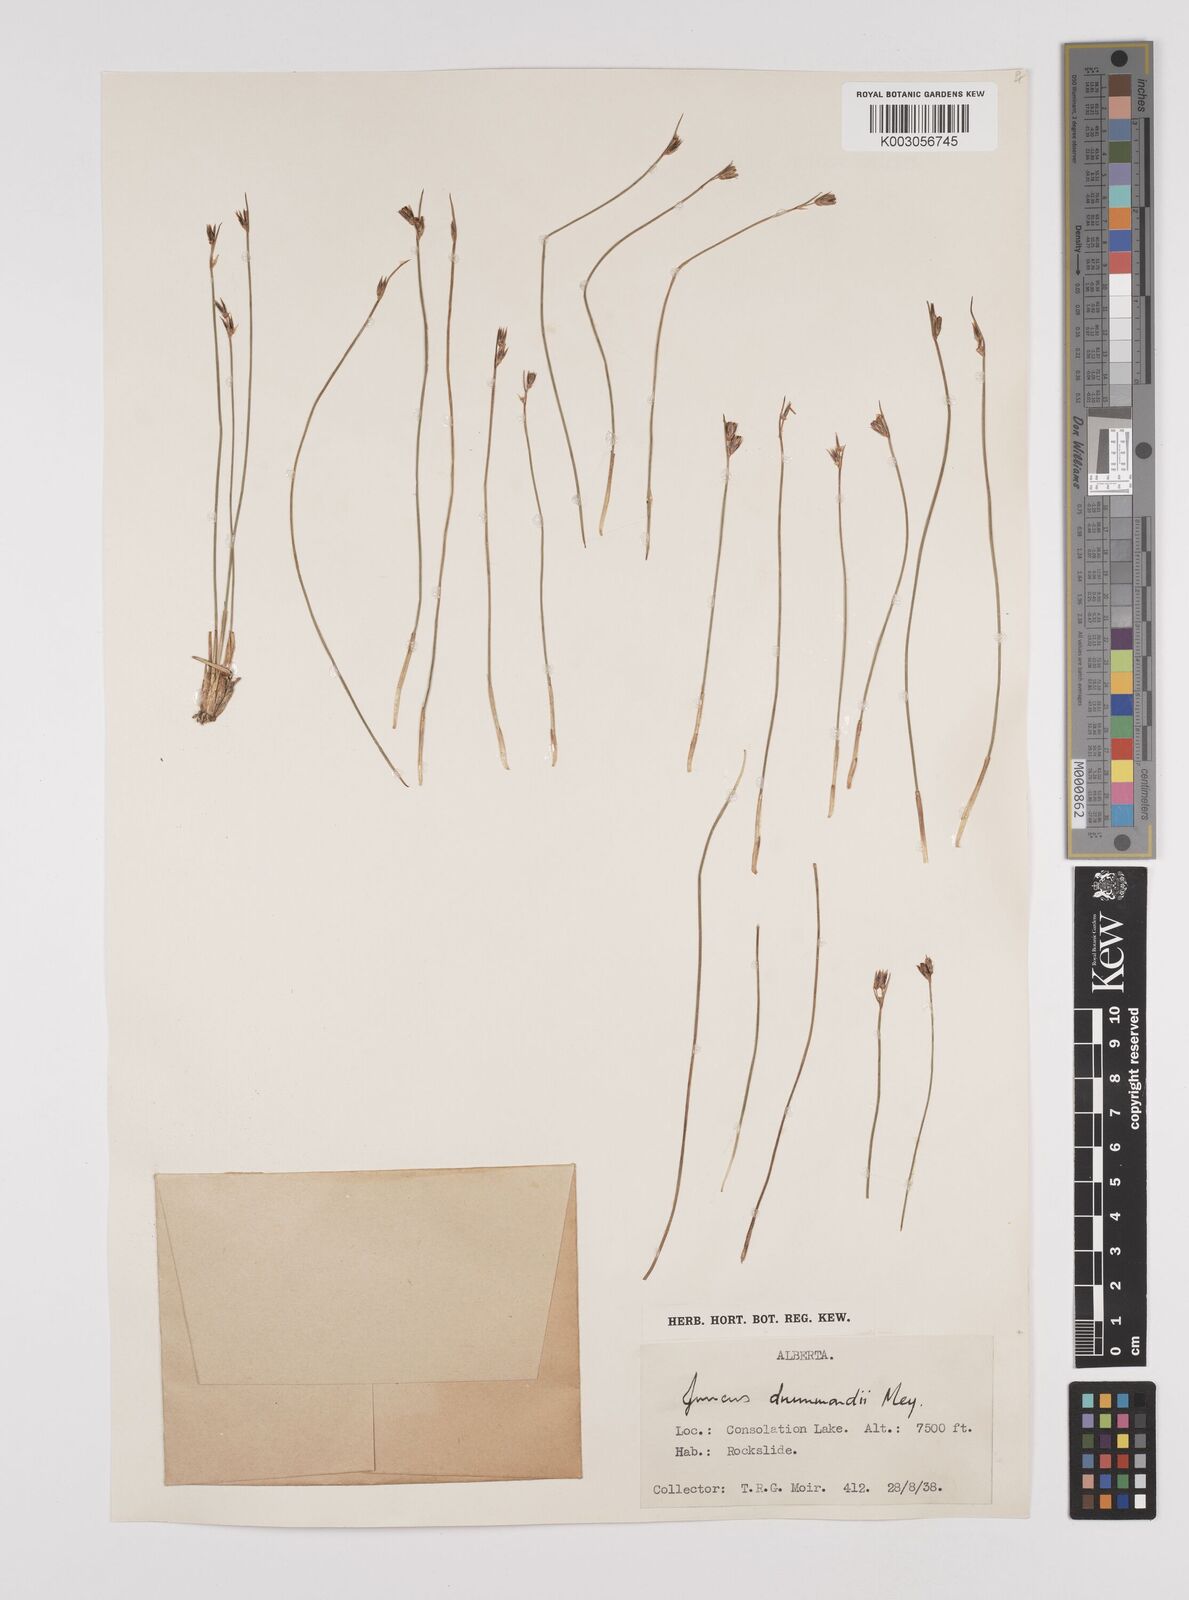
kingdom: Plantae
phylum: Tracheophyta
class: Liliopsida
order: Poales
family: Juncaceae
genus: Juncus
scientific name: Juncus drummondii
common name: Drummond's rush
